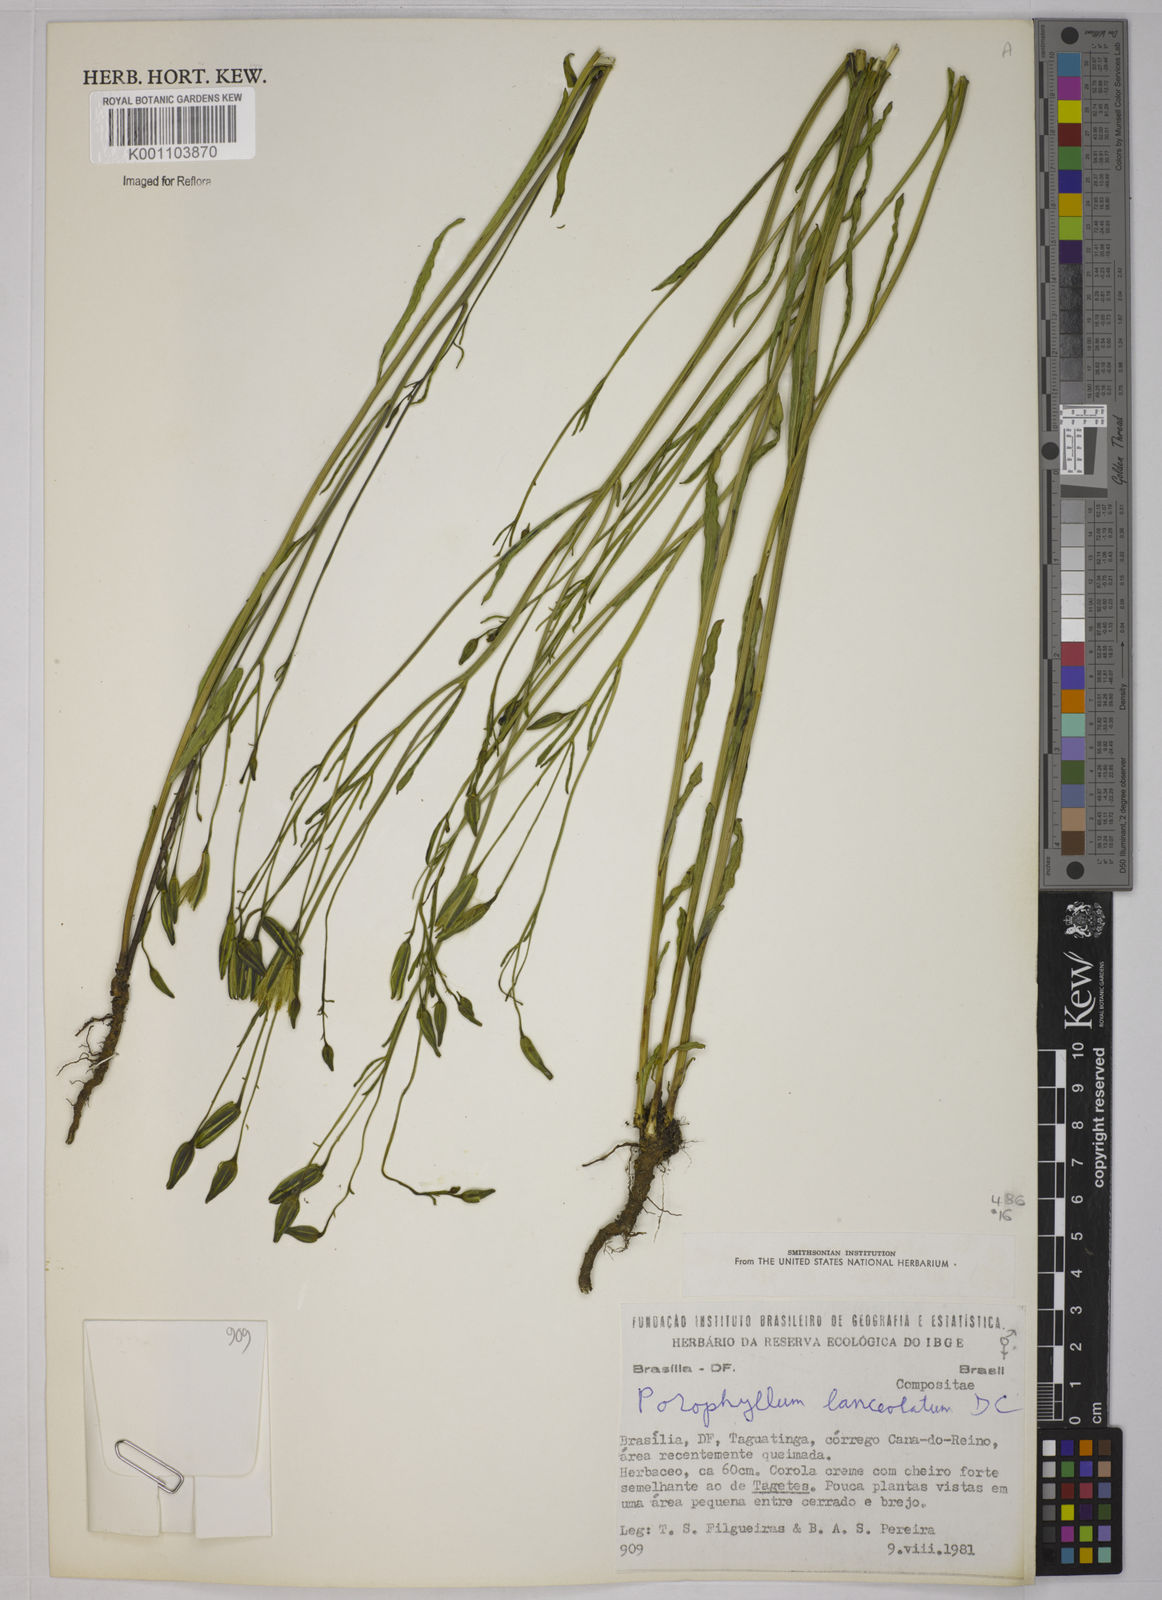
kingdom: Plantae
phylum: Tracheophyta
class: Magnoliopsida
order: Asterales
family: Asteraceae
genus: Porophyllum
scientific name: Porophyllum obscurum
